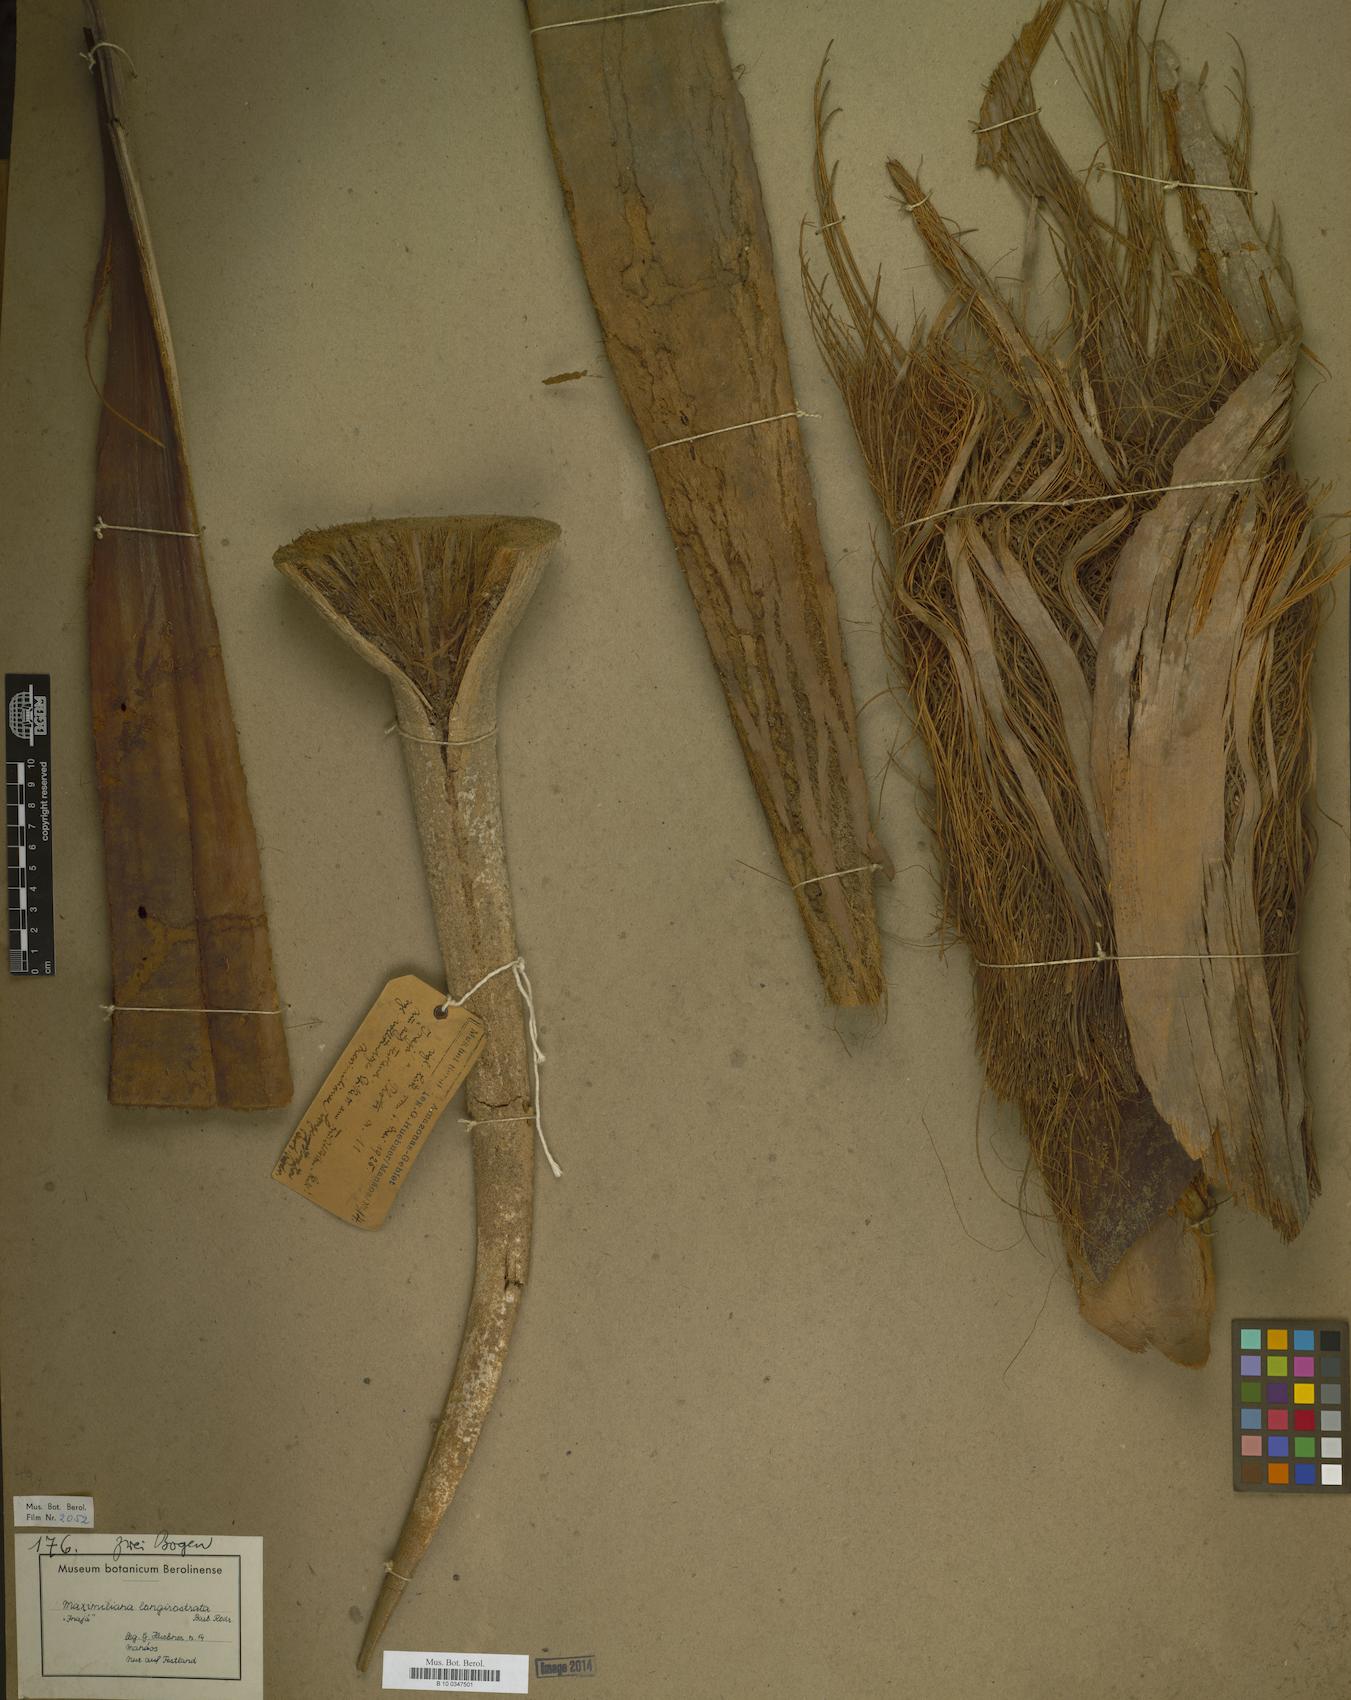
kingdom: Plantae
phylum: Tracheophyta
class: Liliopsida
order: Arecales
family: Arecaceae
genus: Attalea
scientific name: Attalea maripa
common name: Maripa palm
